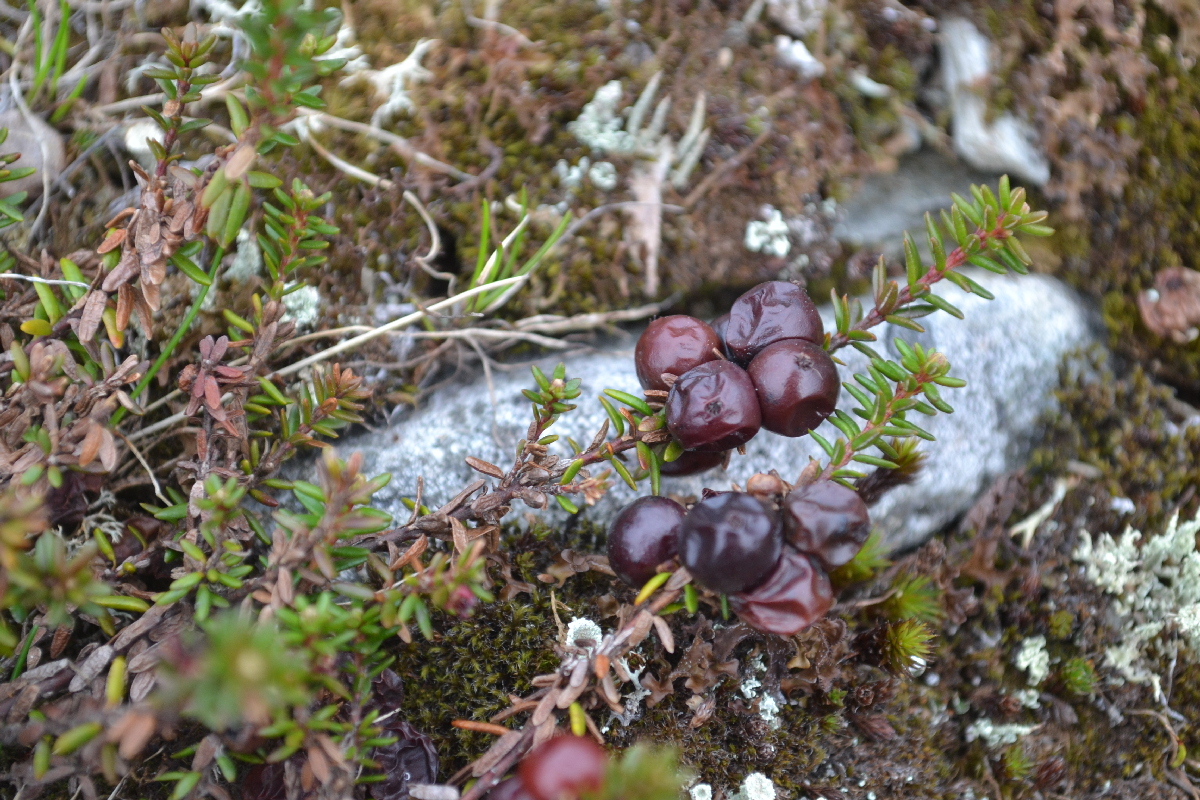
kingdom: Plantae
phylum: Tracheophyta
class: Magnoliopsida
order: Ericales
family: Ericaceae
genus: Empetrum
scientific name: Empetrum nigrum
